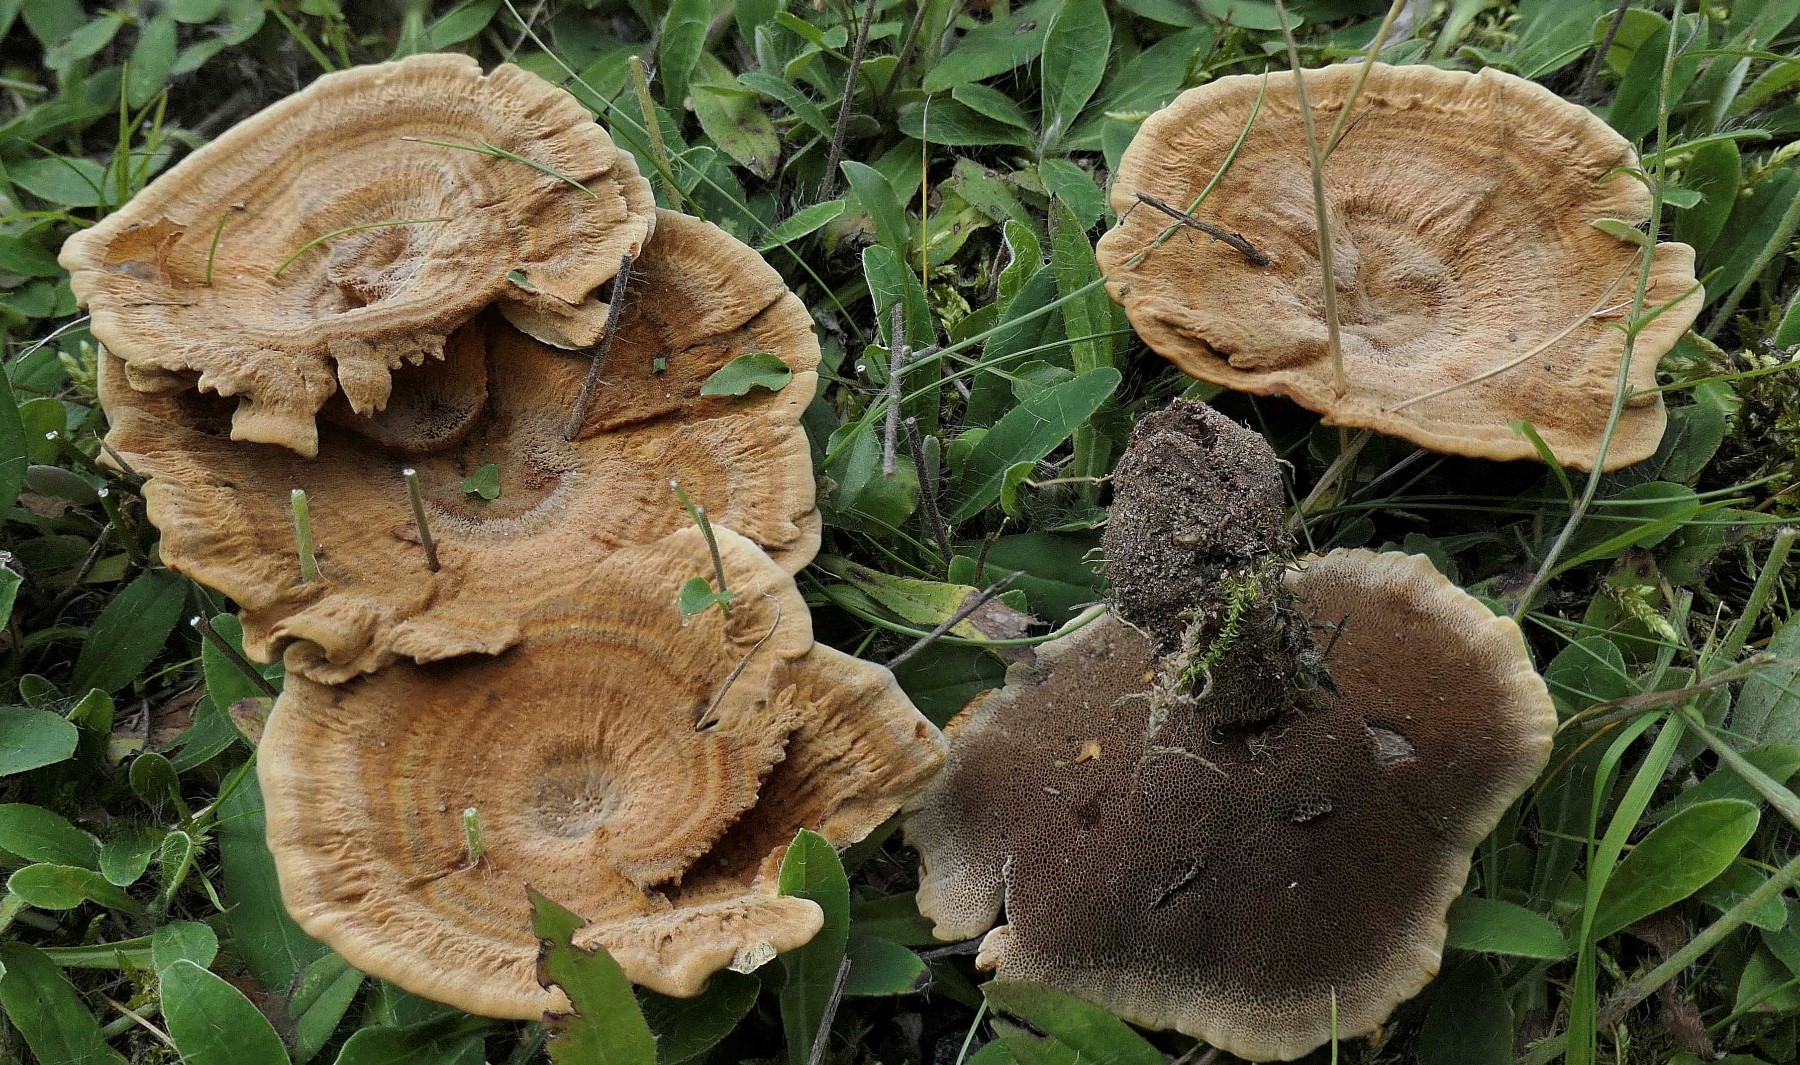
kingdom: Fungi
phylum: Basidiomycota
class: Agaricomycetes
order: Hymenochaetales
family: Hymenochaetaceae
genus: Coltricia
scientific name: Coltricia perennis
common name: almindelig sandporesvamp
